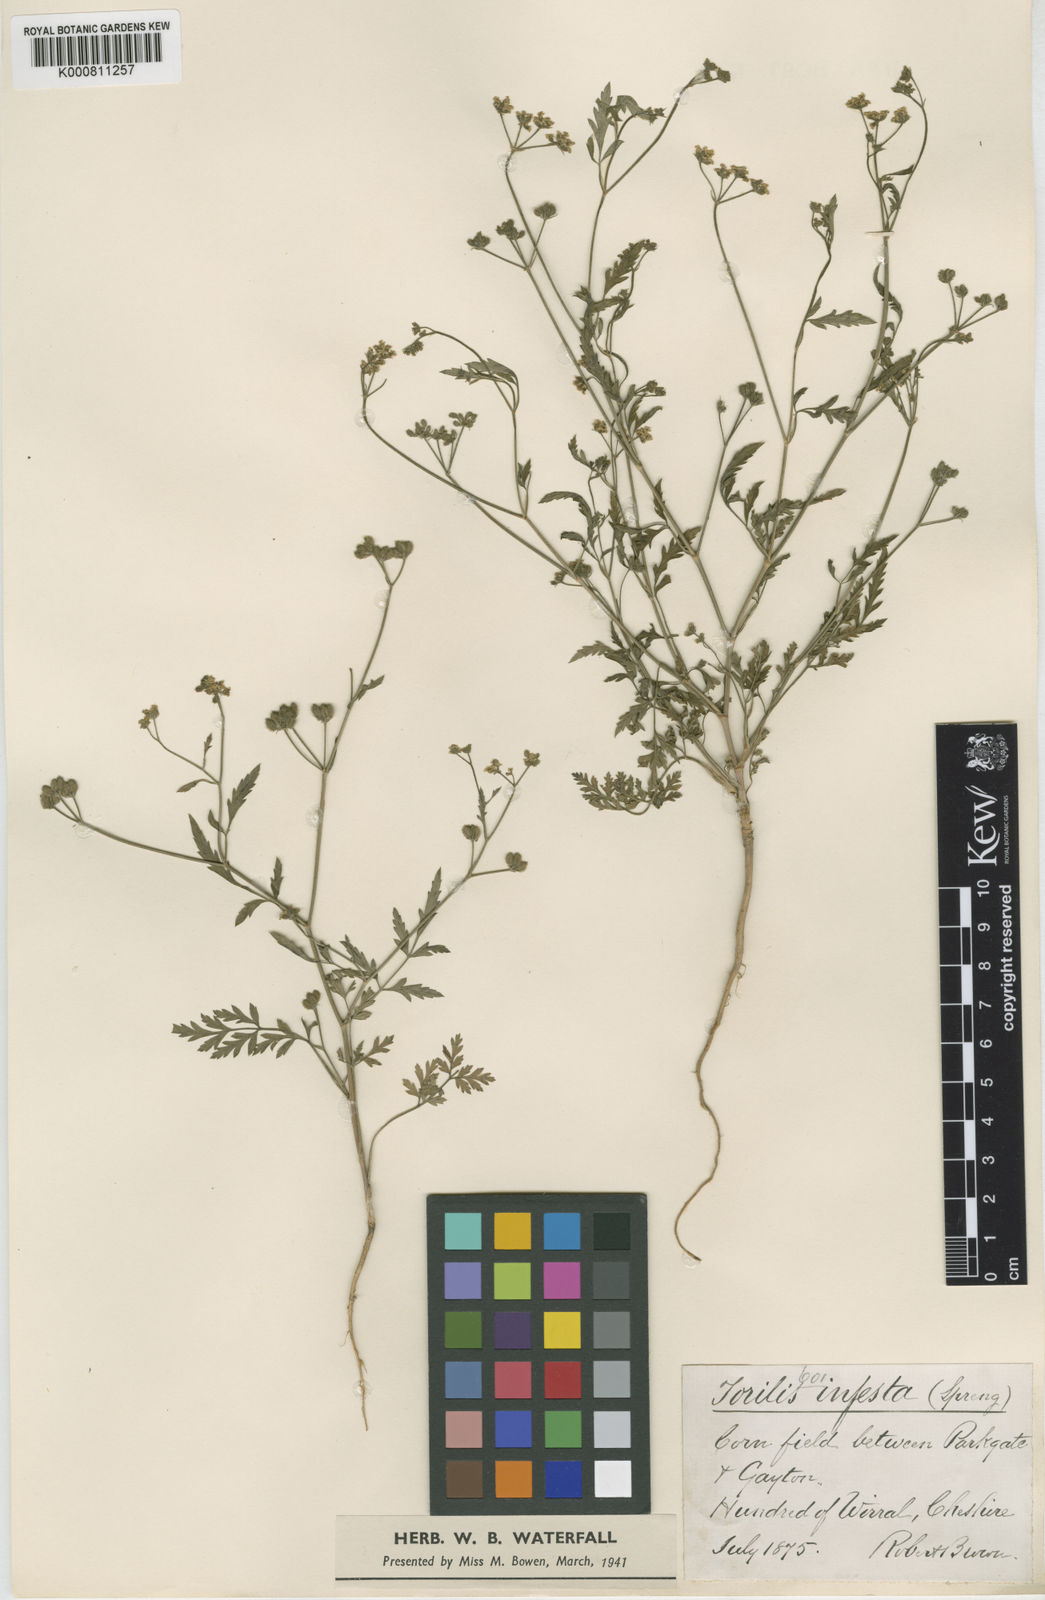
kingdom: Plantae
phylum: Tracheophyta
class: Magnoliopsida
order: Apiales
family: Apiaceae
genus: Torilis
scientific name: Torilis arvensis
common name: Spreading hedge-parsley
